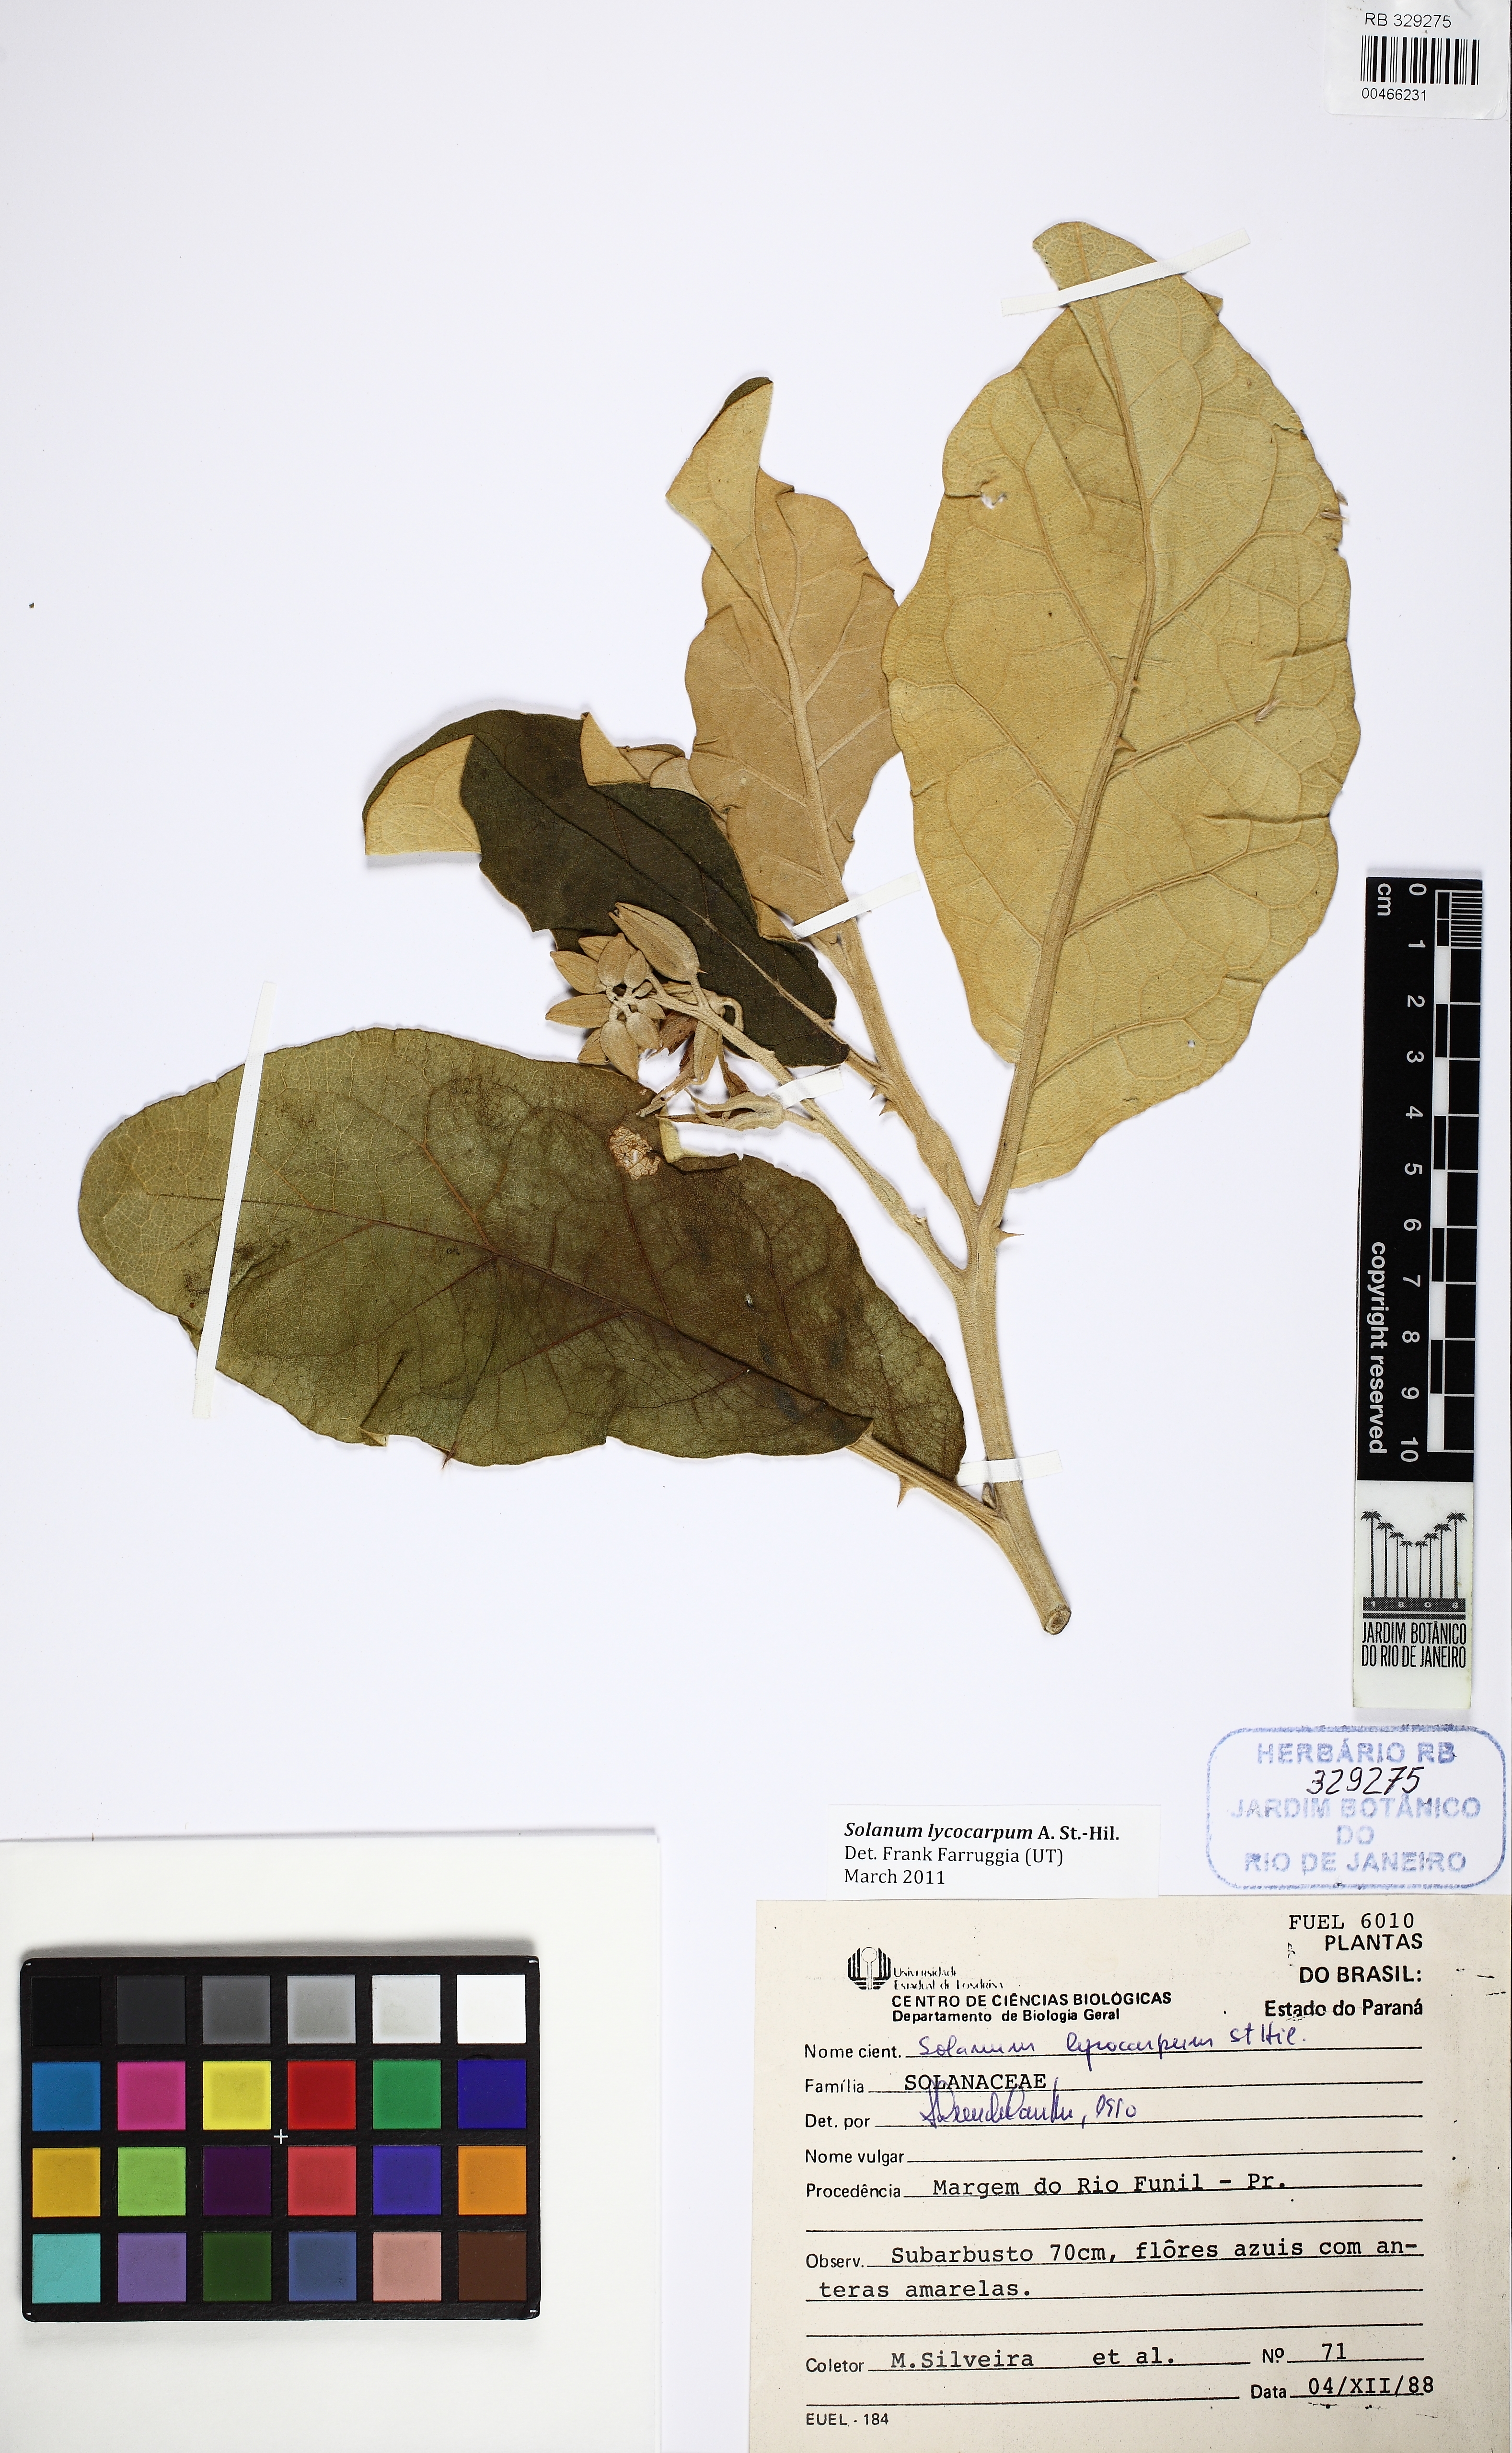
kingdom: Plantae
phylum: Tracheophyta
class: Magnoliopsida
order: Solanales
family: Solanaceae
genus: Solanum
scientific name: Solanum lycocarpum
